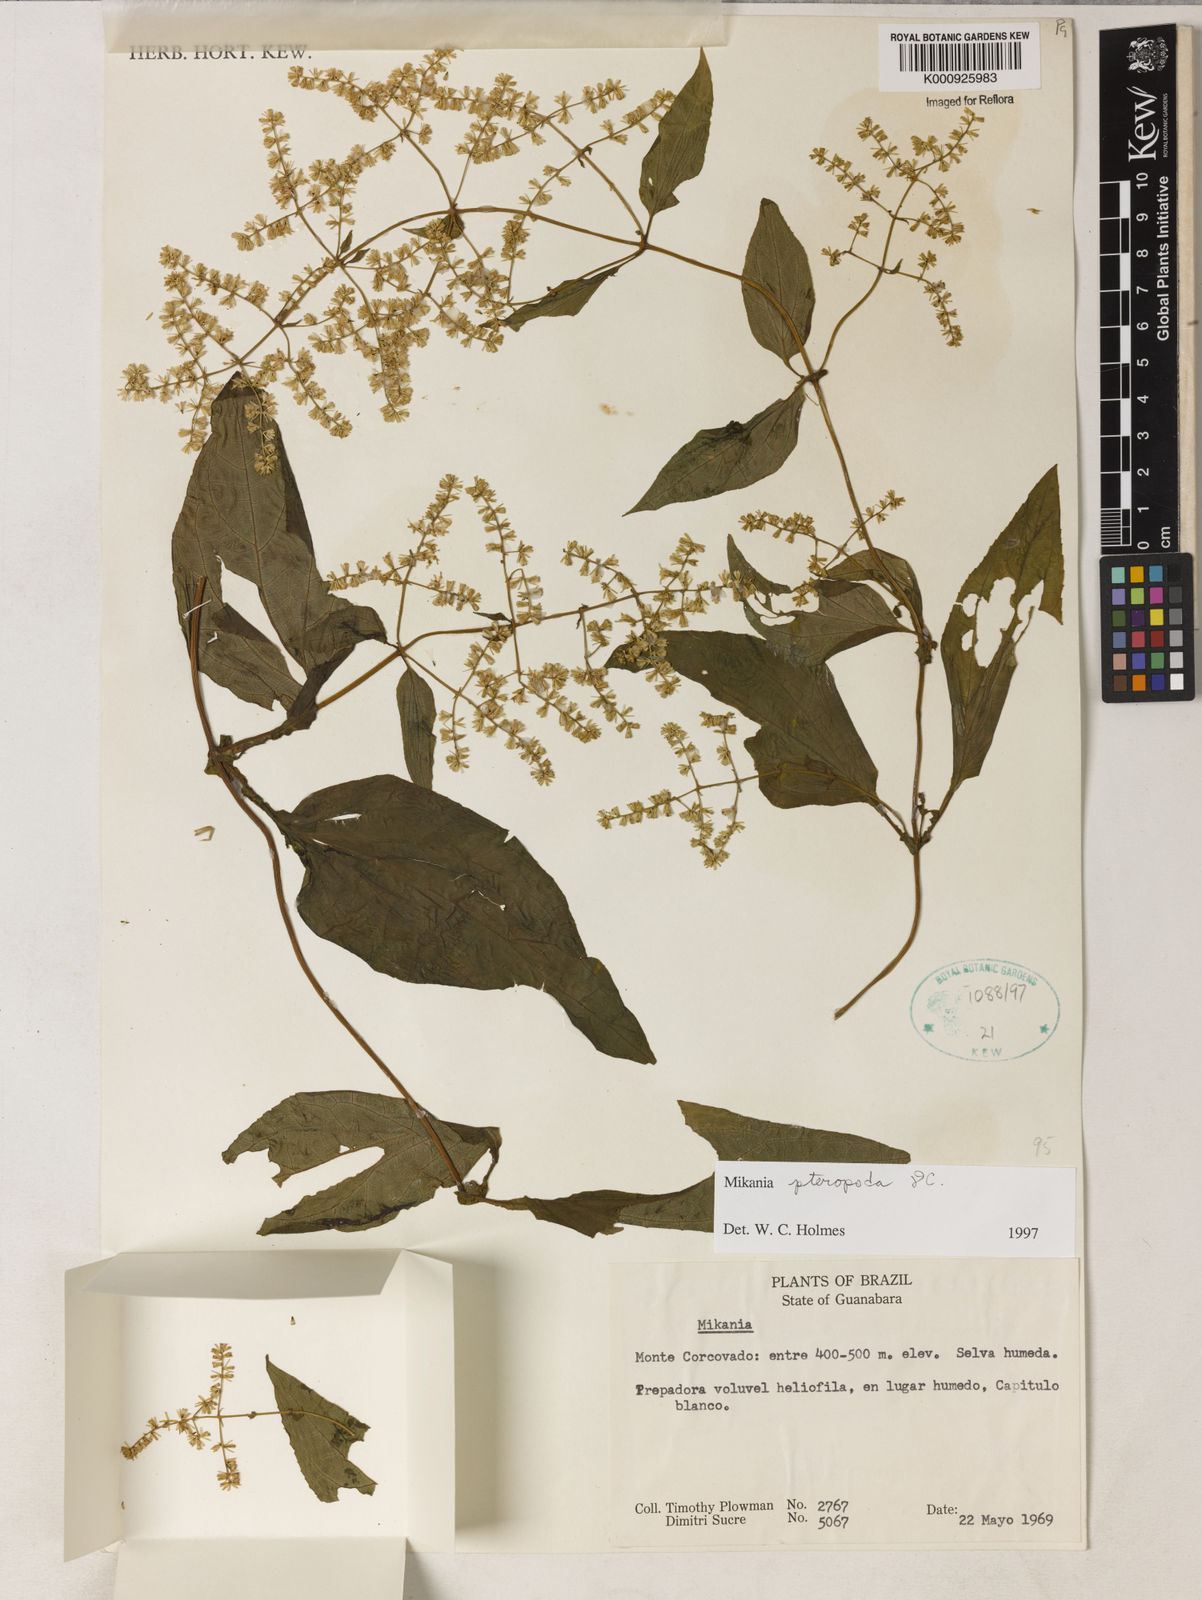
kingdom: Plantae
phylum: Tracheophyta
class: Magnoliopsida
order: Asterales
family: Asteraceae
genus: Mikania
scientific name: Mikania pteropoda
